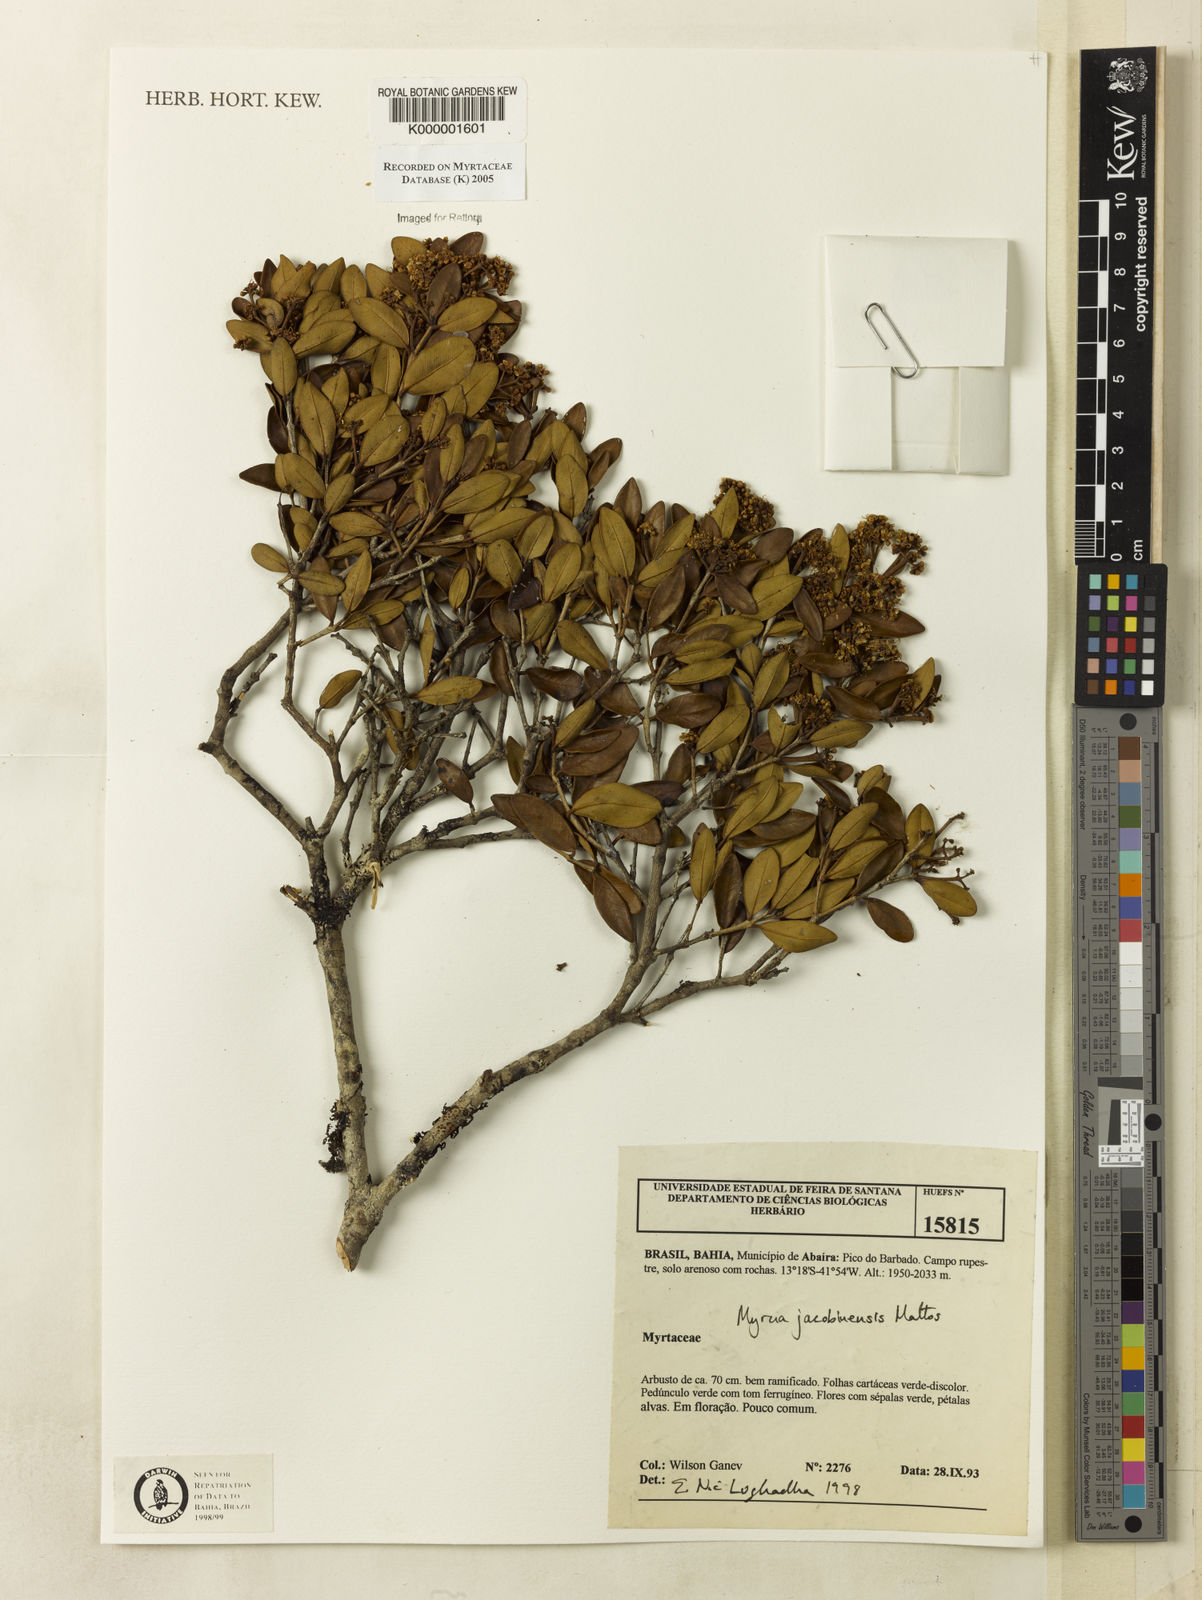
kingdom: Plantae
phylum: Tracheophyta
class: Magnoliopsida
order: Myrtales
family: Myrtaceae
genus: Myrcia
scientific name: Myrcia jacobinensis
